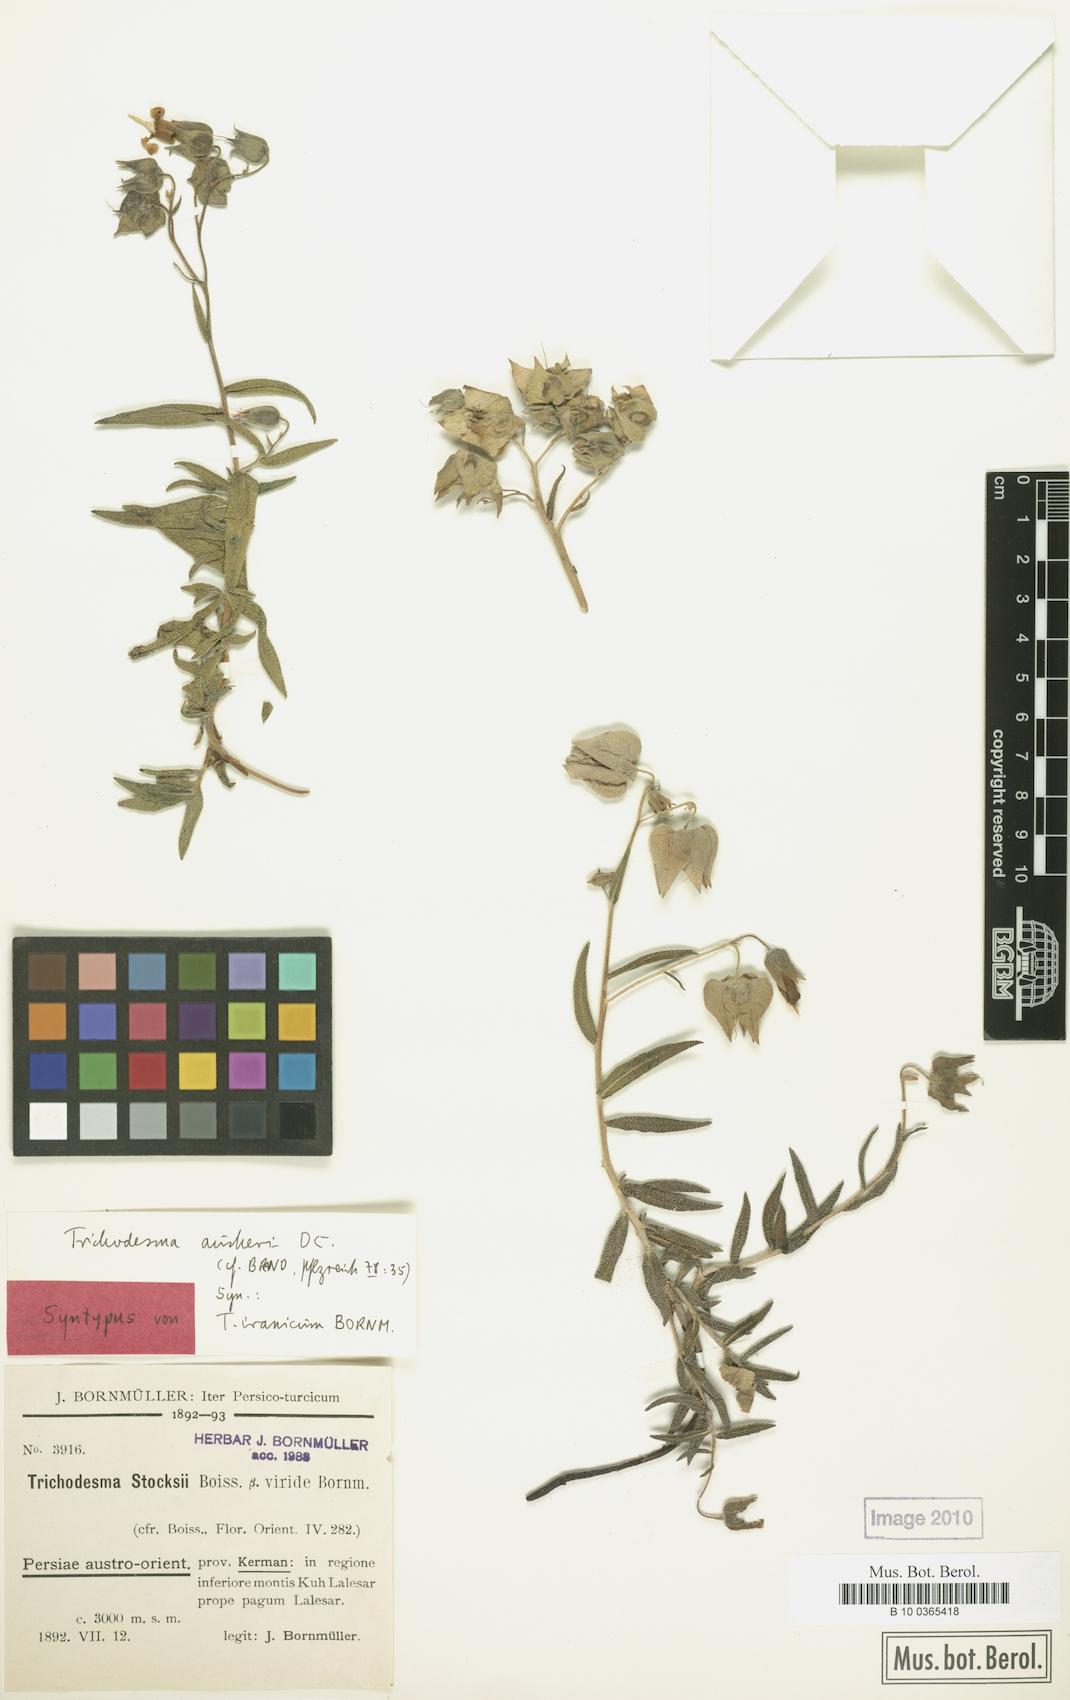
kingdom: Plantae
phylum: Tracheophyta
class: Magnoliopsida
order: Boraginales
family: Boraginaceae
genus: Trichodesma
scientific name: Trichodesma aucheri
